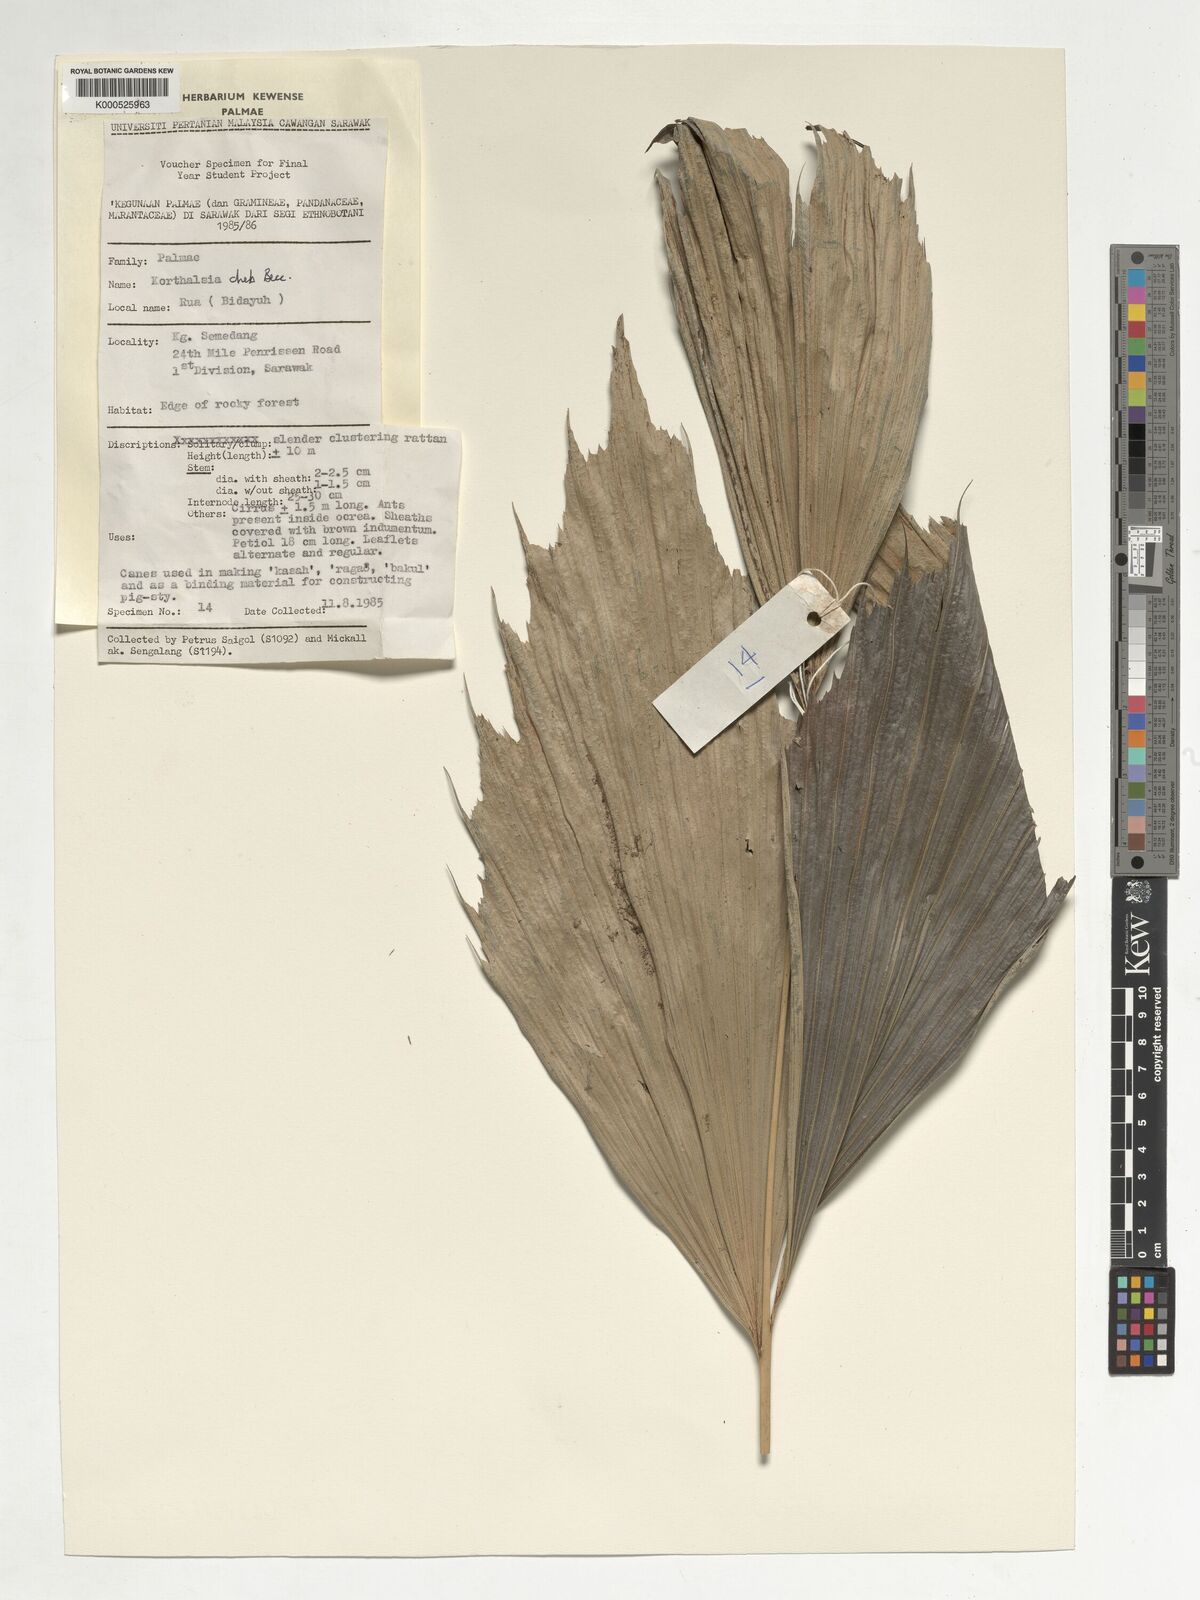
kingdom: Plantae
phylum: Tracheophyta
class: Liliopsida
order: Arecales
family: Arecaceae
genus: Korthalsia
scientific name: Korthalsia cheb
